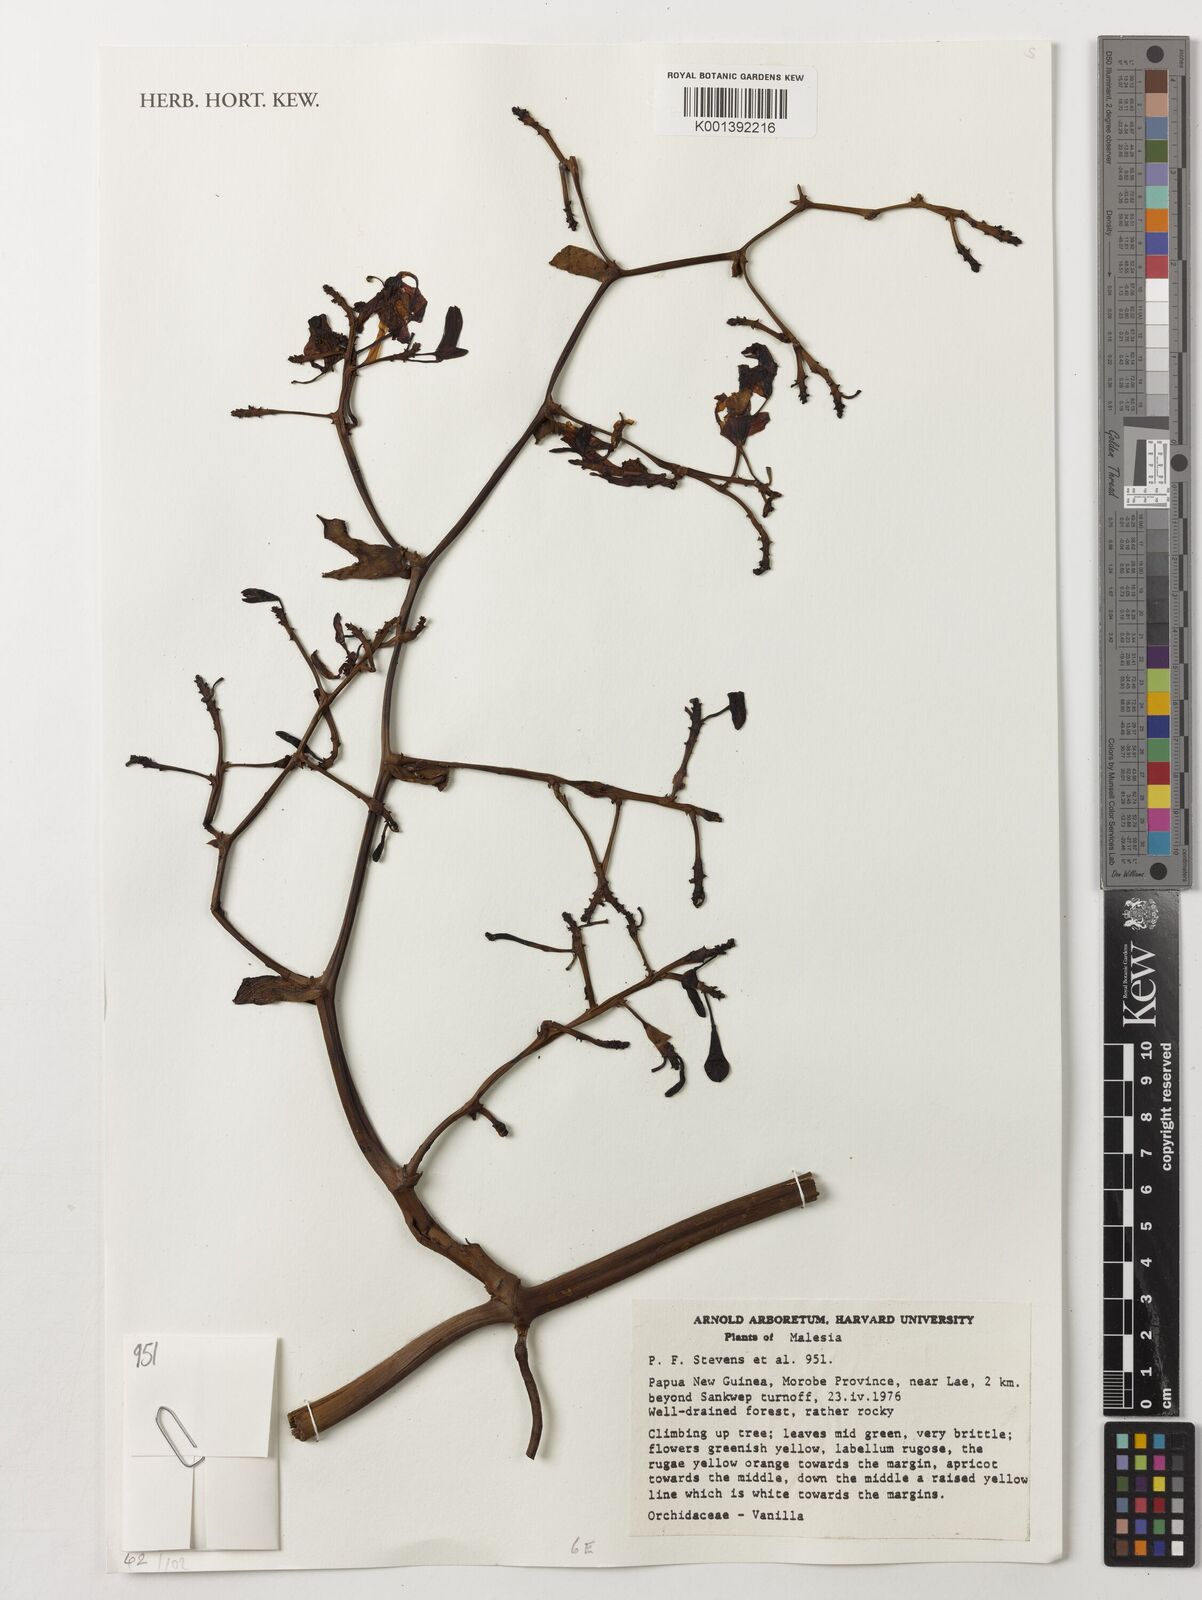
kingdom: Plantae
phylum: Tracheophyta
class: Liliopsida
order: Asparagales
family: Orchidaceae
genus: Vanilla
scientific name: Vanilla
